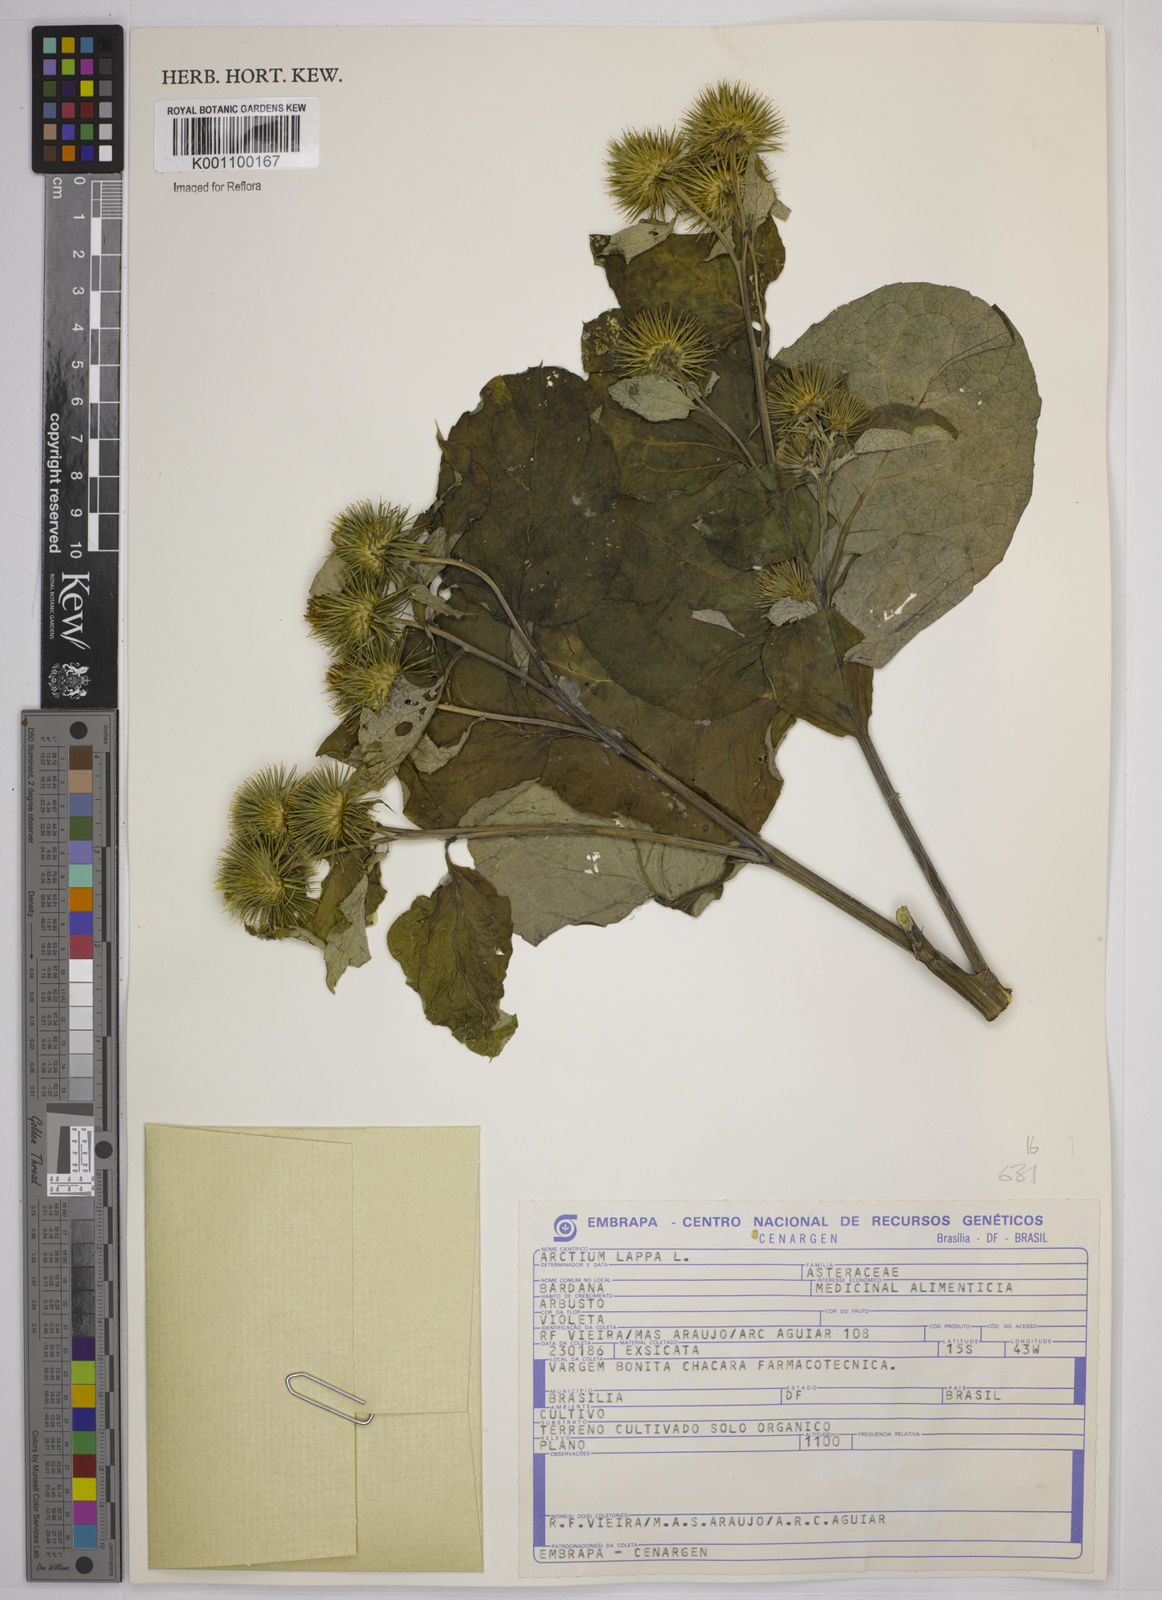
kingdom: Plantae
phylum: Tracheophyta
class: Magnoliopsida
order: Asterales
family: Asteraceae
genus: Arctium
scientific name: Arctium lappa
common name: Greater burdock
